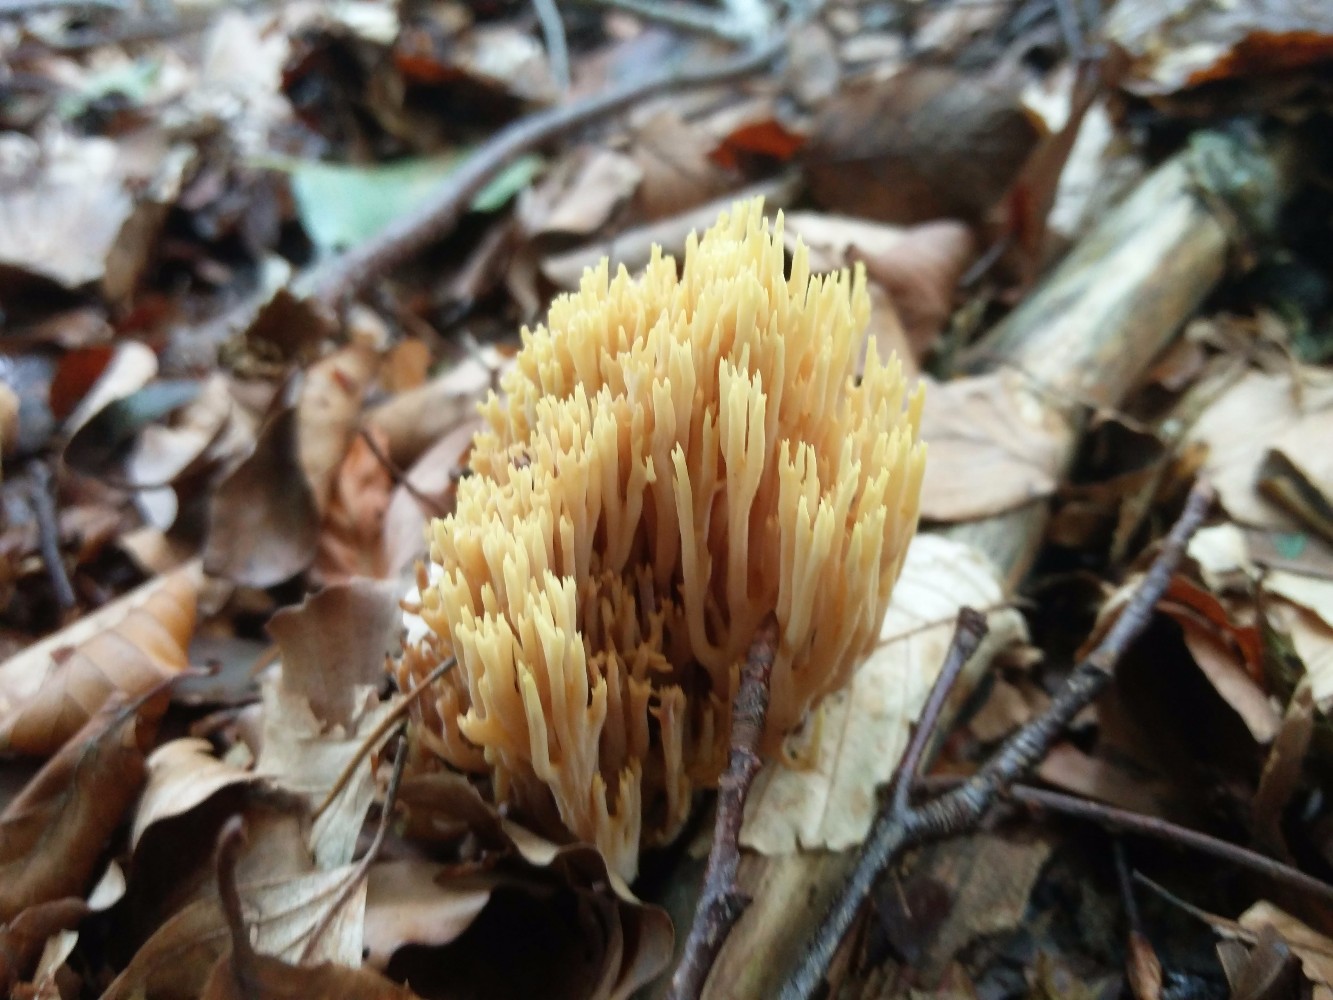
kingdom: Fungi
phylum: Basidiomycota
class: Agaricomycetes
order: Gomphales
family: Gomphaceae
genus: Ramaria
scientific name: Ramaria stricta
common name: rank koralsvamp
